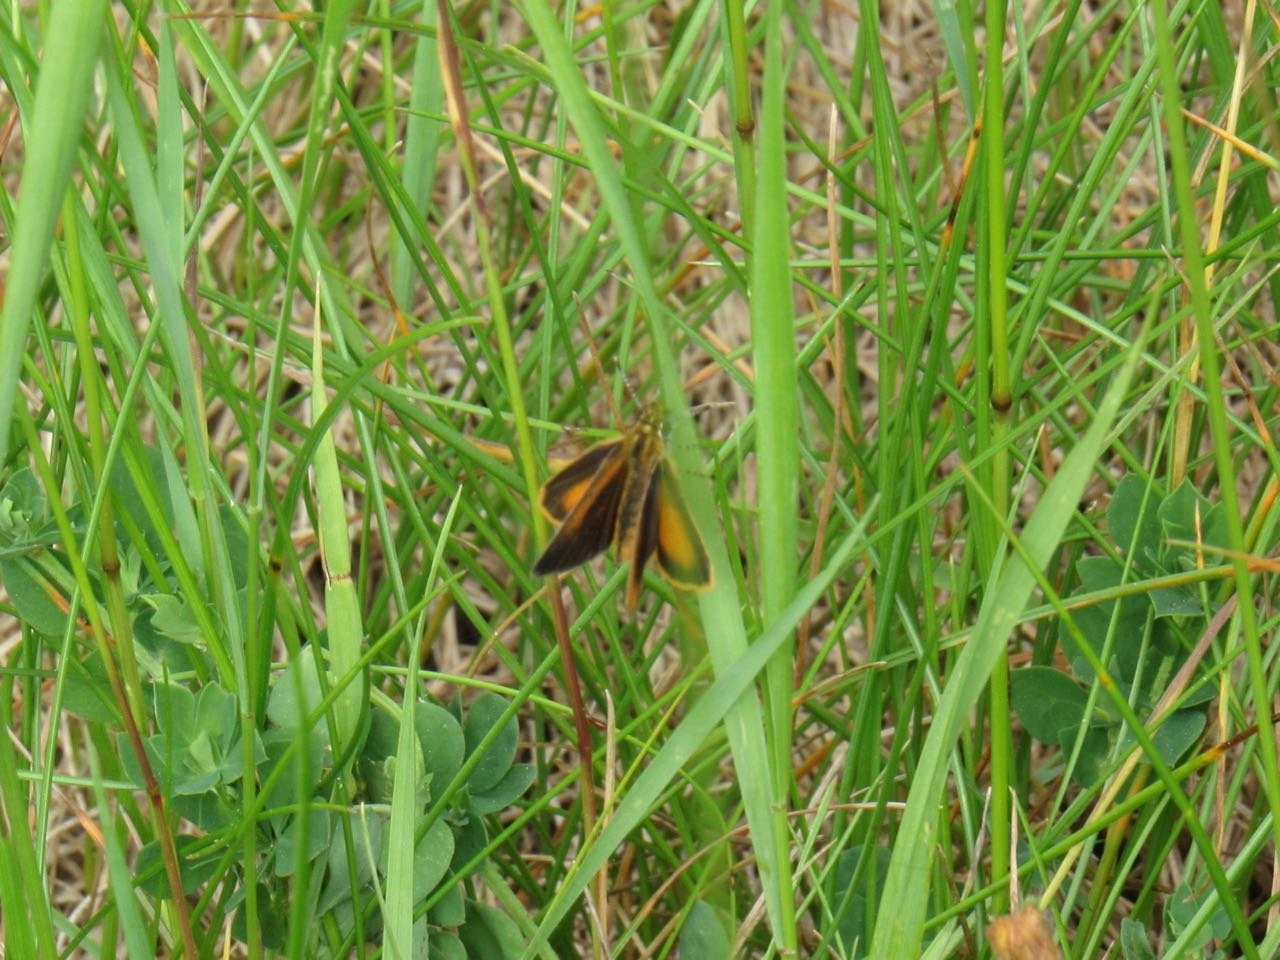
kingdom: Animalia
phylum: Arthropoda
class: Insecta
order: Lepidoptera
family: Hesperiidae
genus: Ancyloxypha
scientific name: Ancyloxypha numitor
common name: Least Skipper
